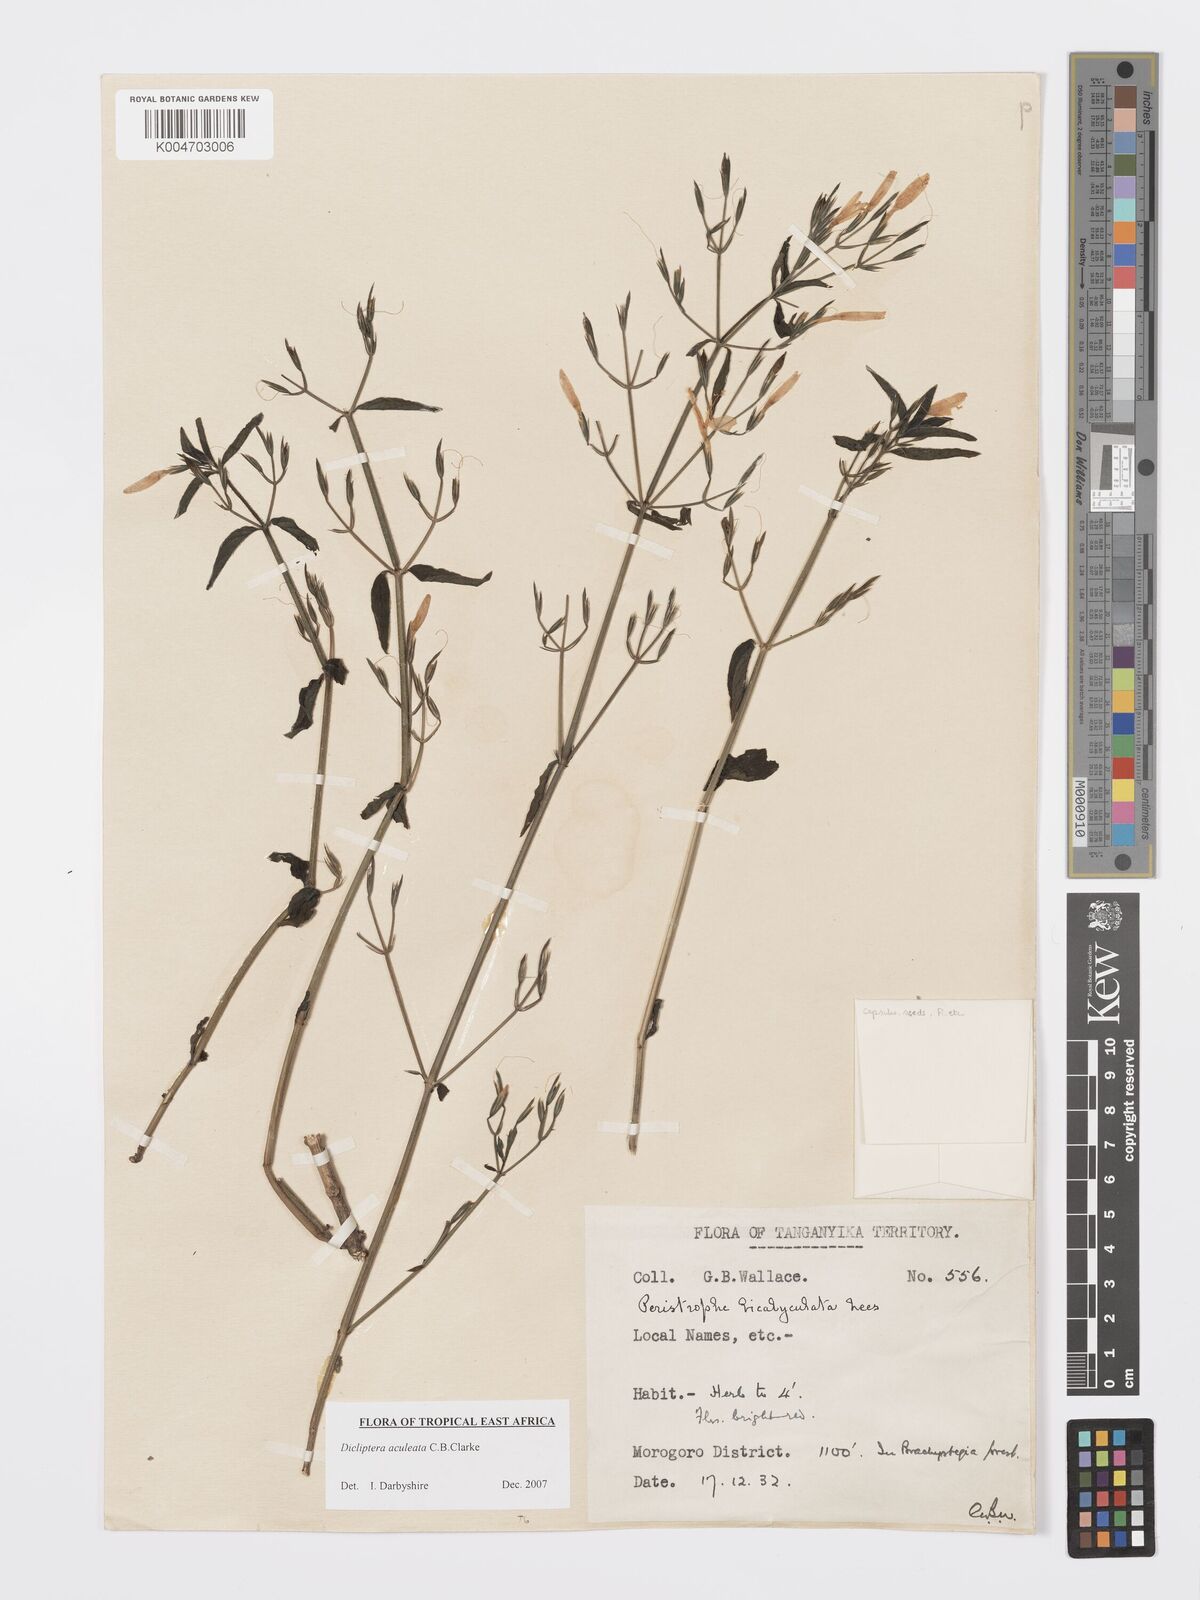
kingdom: Plantae
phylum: Tracheophyta
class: Magnoliopsida
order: Lamiales
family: Acanthaceae
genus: Dicliptera
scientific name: Dicliptera hensii
